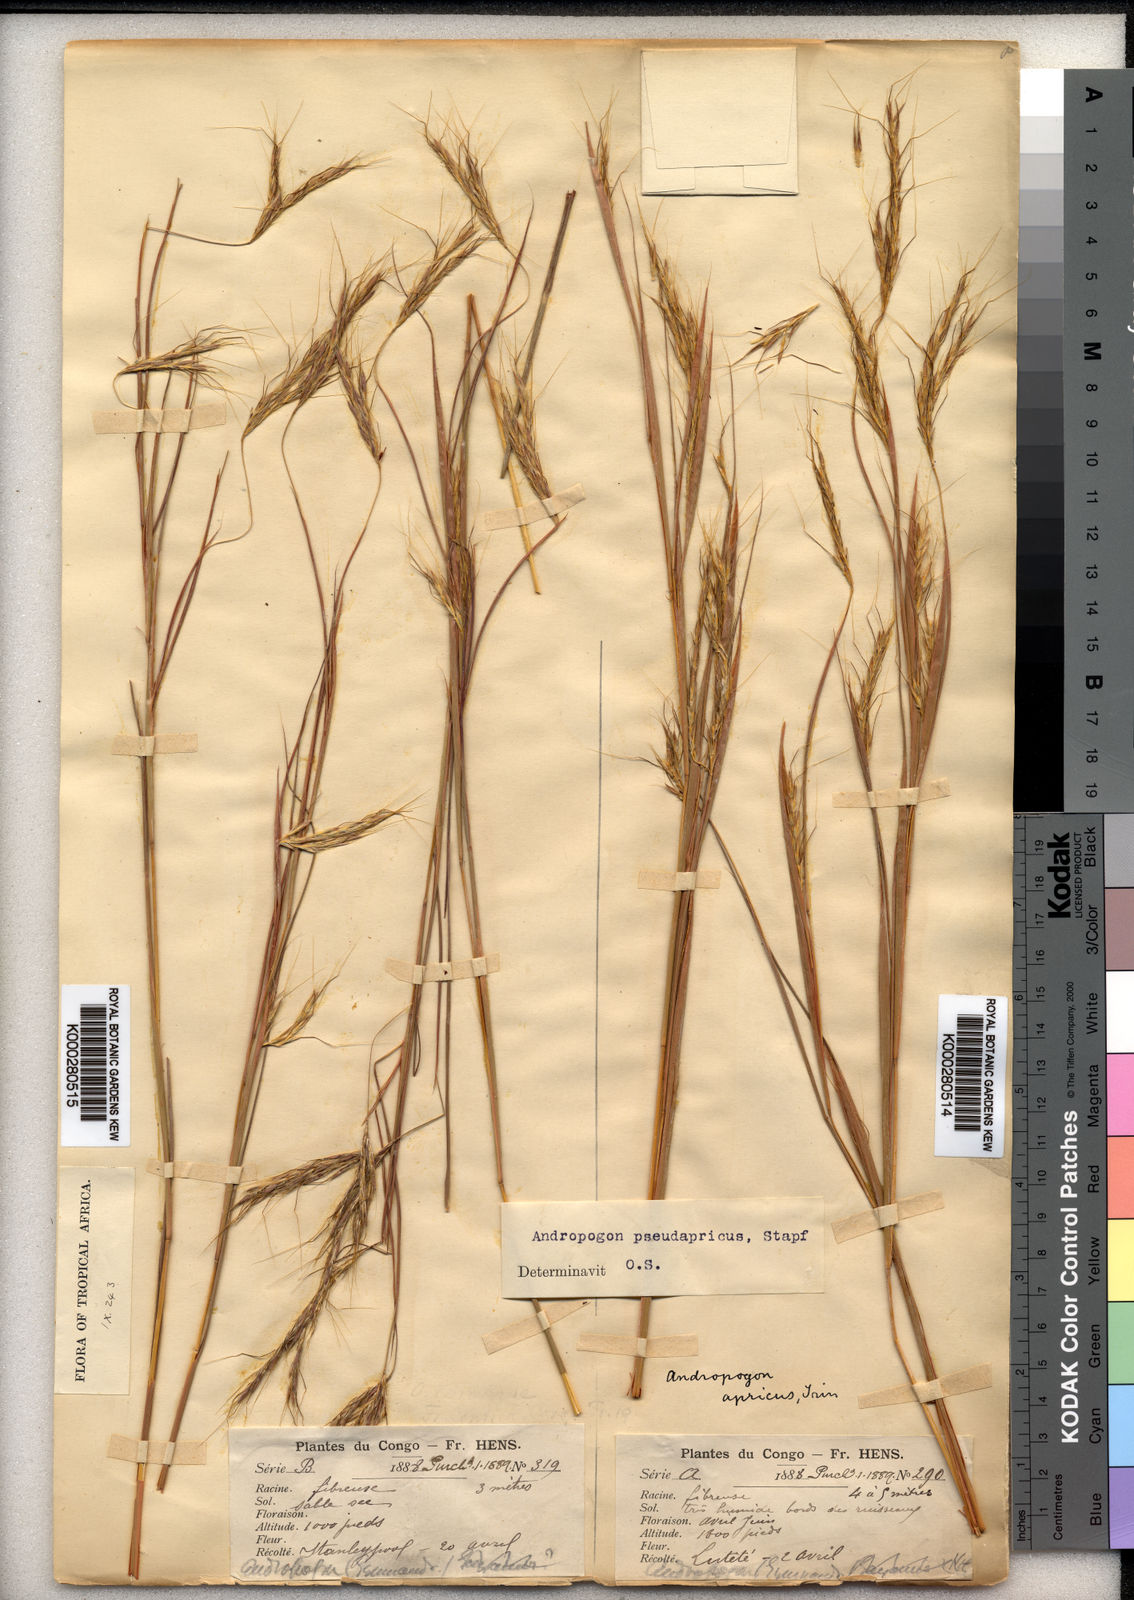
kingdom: Plantae
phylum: Tracheophyta
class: Liliopsida
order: Poales
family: Poaceae
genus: Andropogon
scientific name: Andropogon pseudapricus
